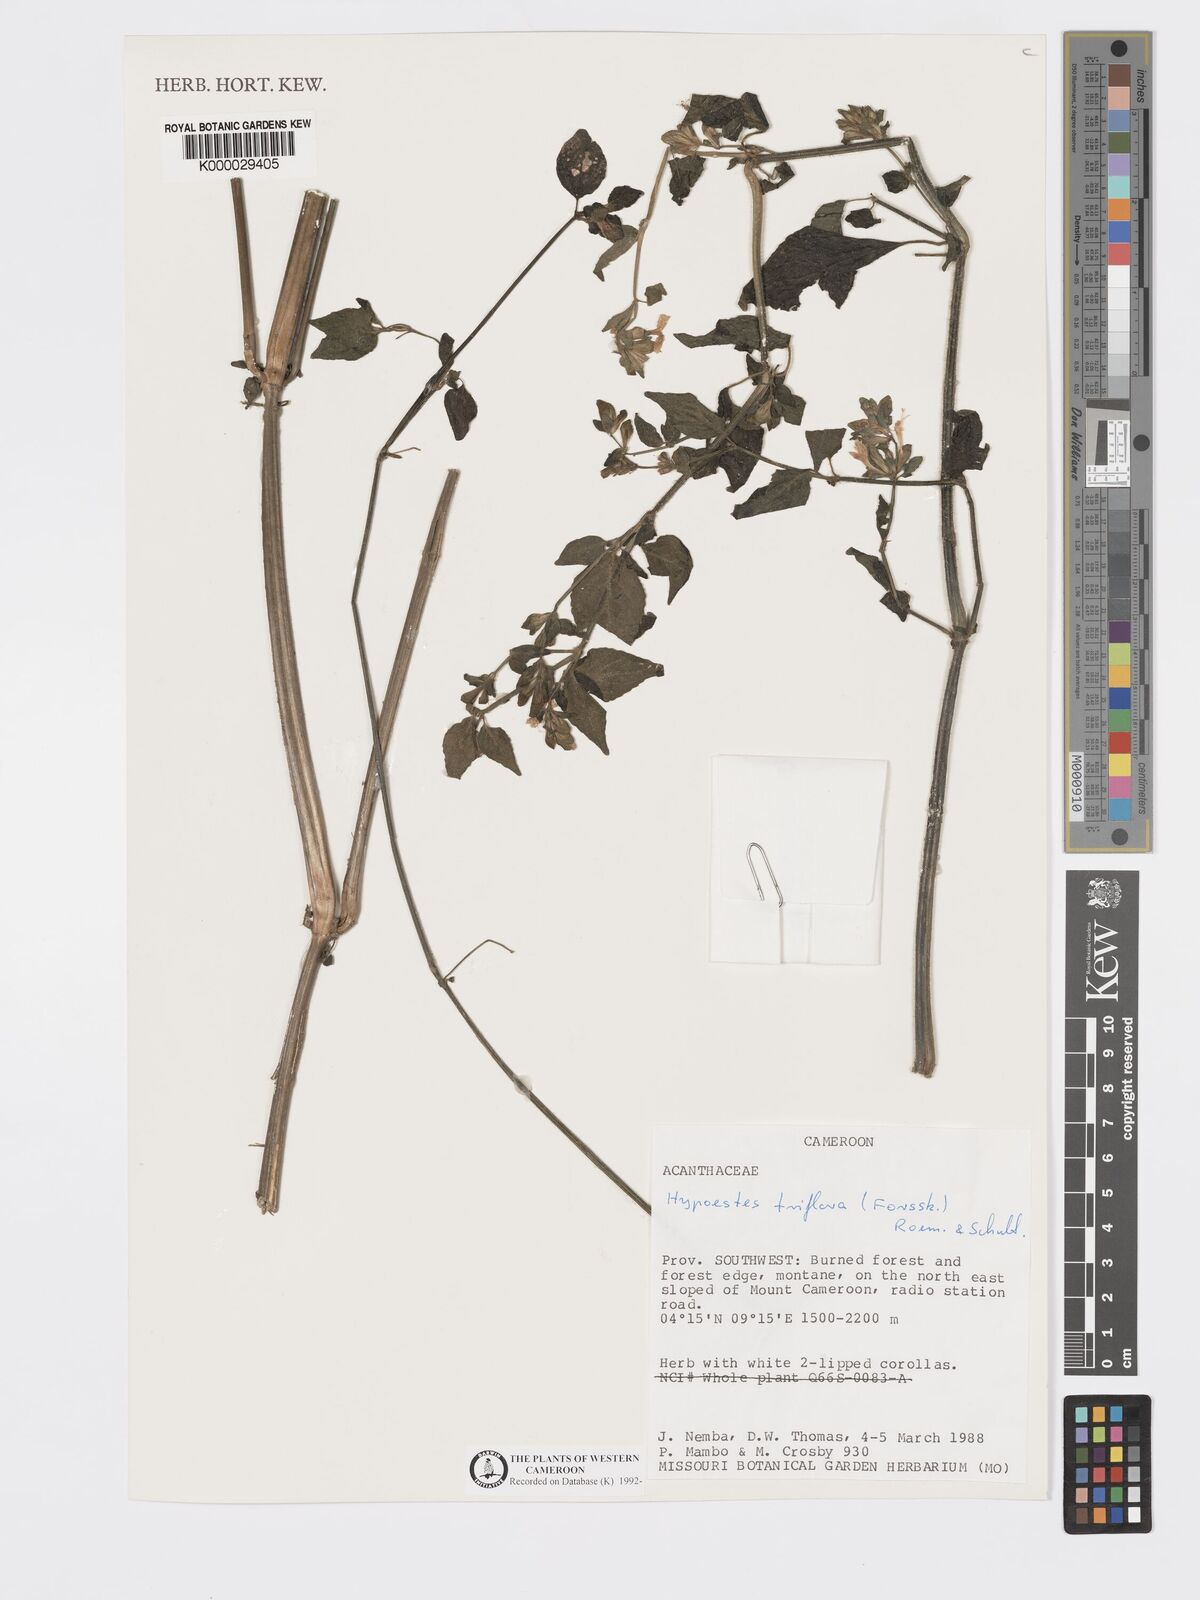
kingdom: Plantae
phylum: Tracheophyta
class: Magnoliopsida
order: Lamiales
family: Acanthaceae
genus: Hypoestes
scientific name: Hypoestes triflora
